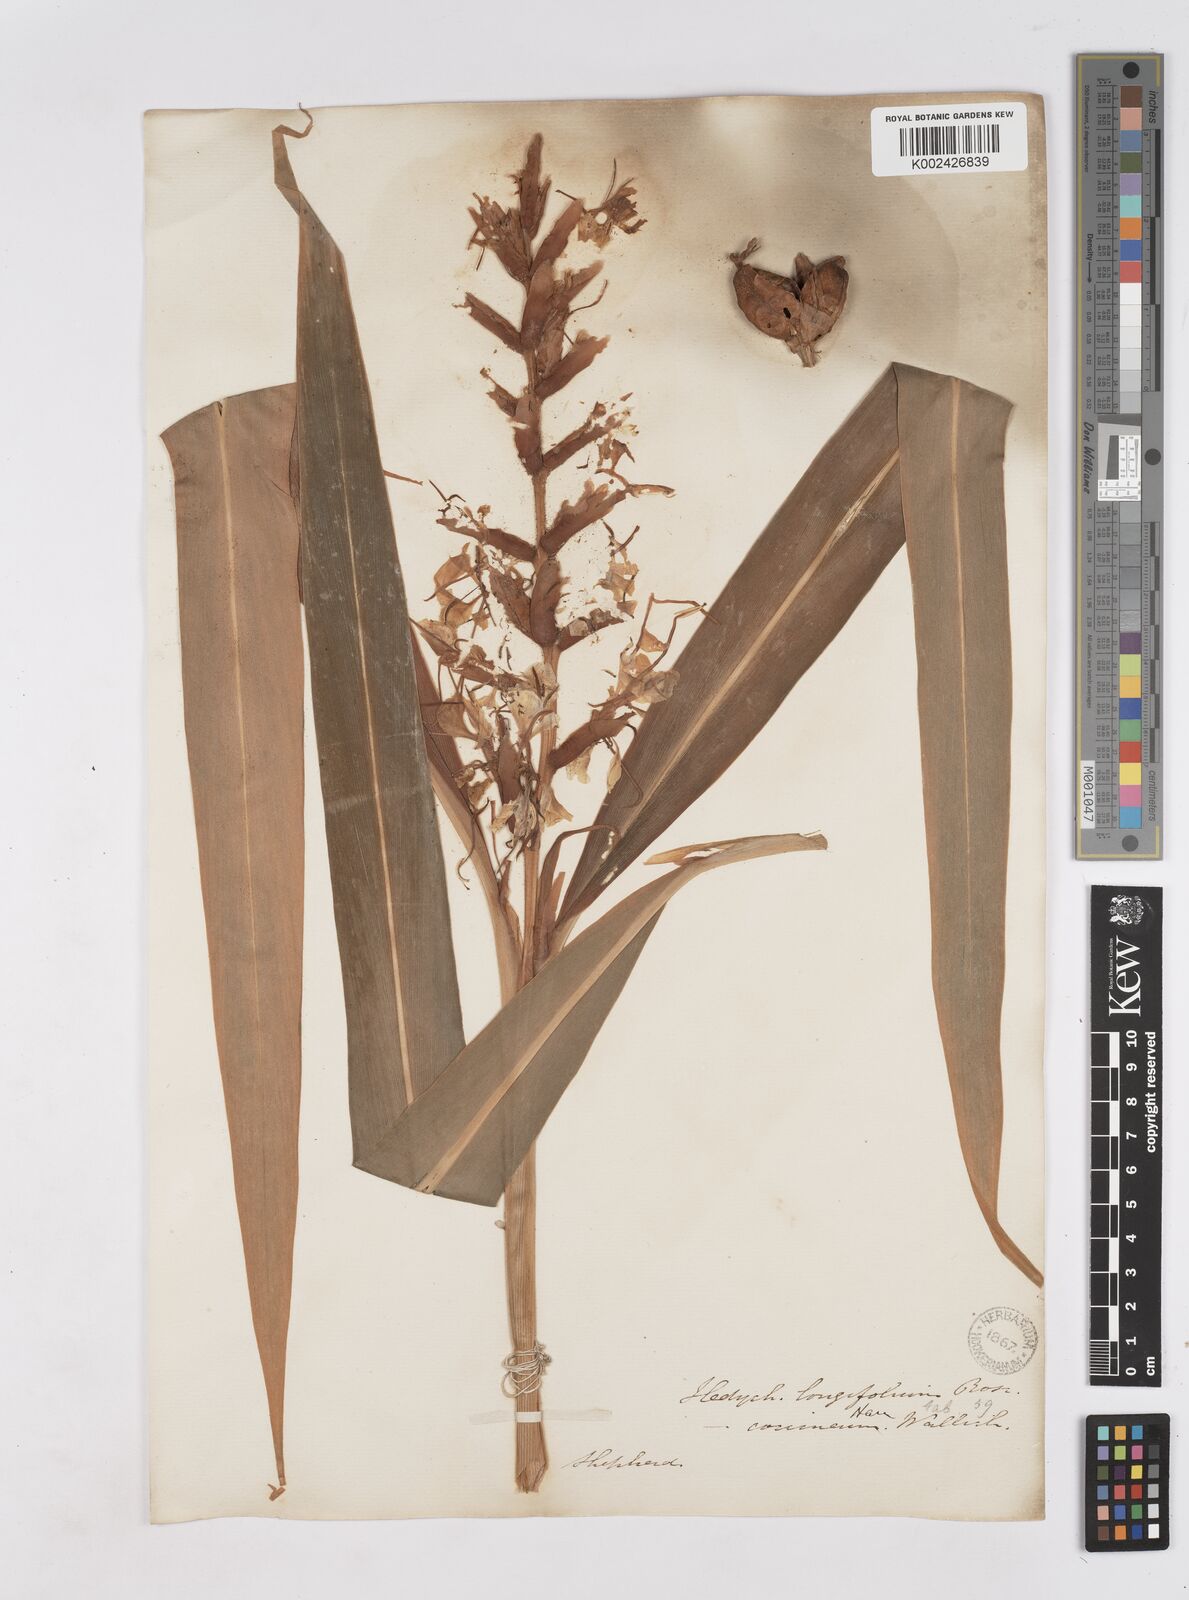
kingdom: Plantae
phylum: Tracheophyta
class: Liliopsida
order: Zingiberales
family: Zingiberaceae
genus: Hedychium
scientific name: Hedychium coccineum
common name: Red ginger-lily
